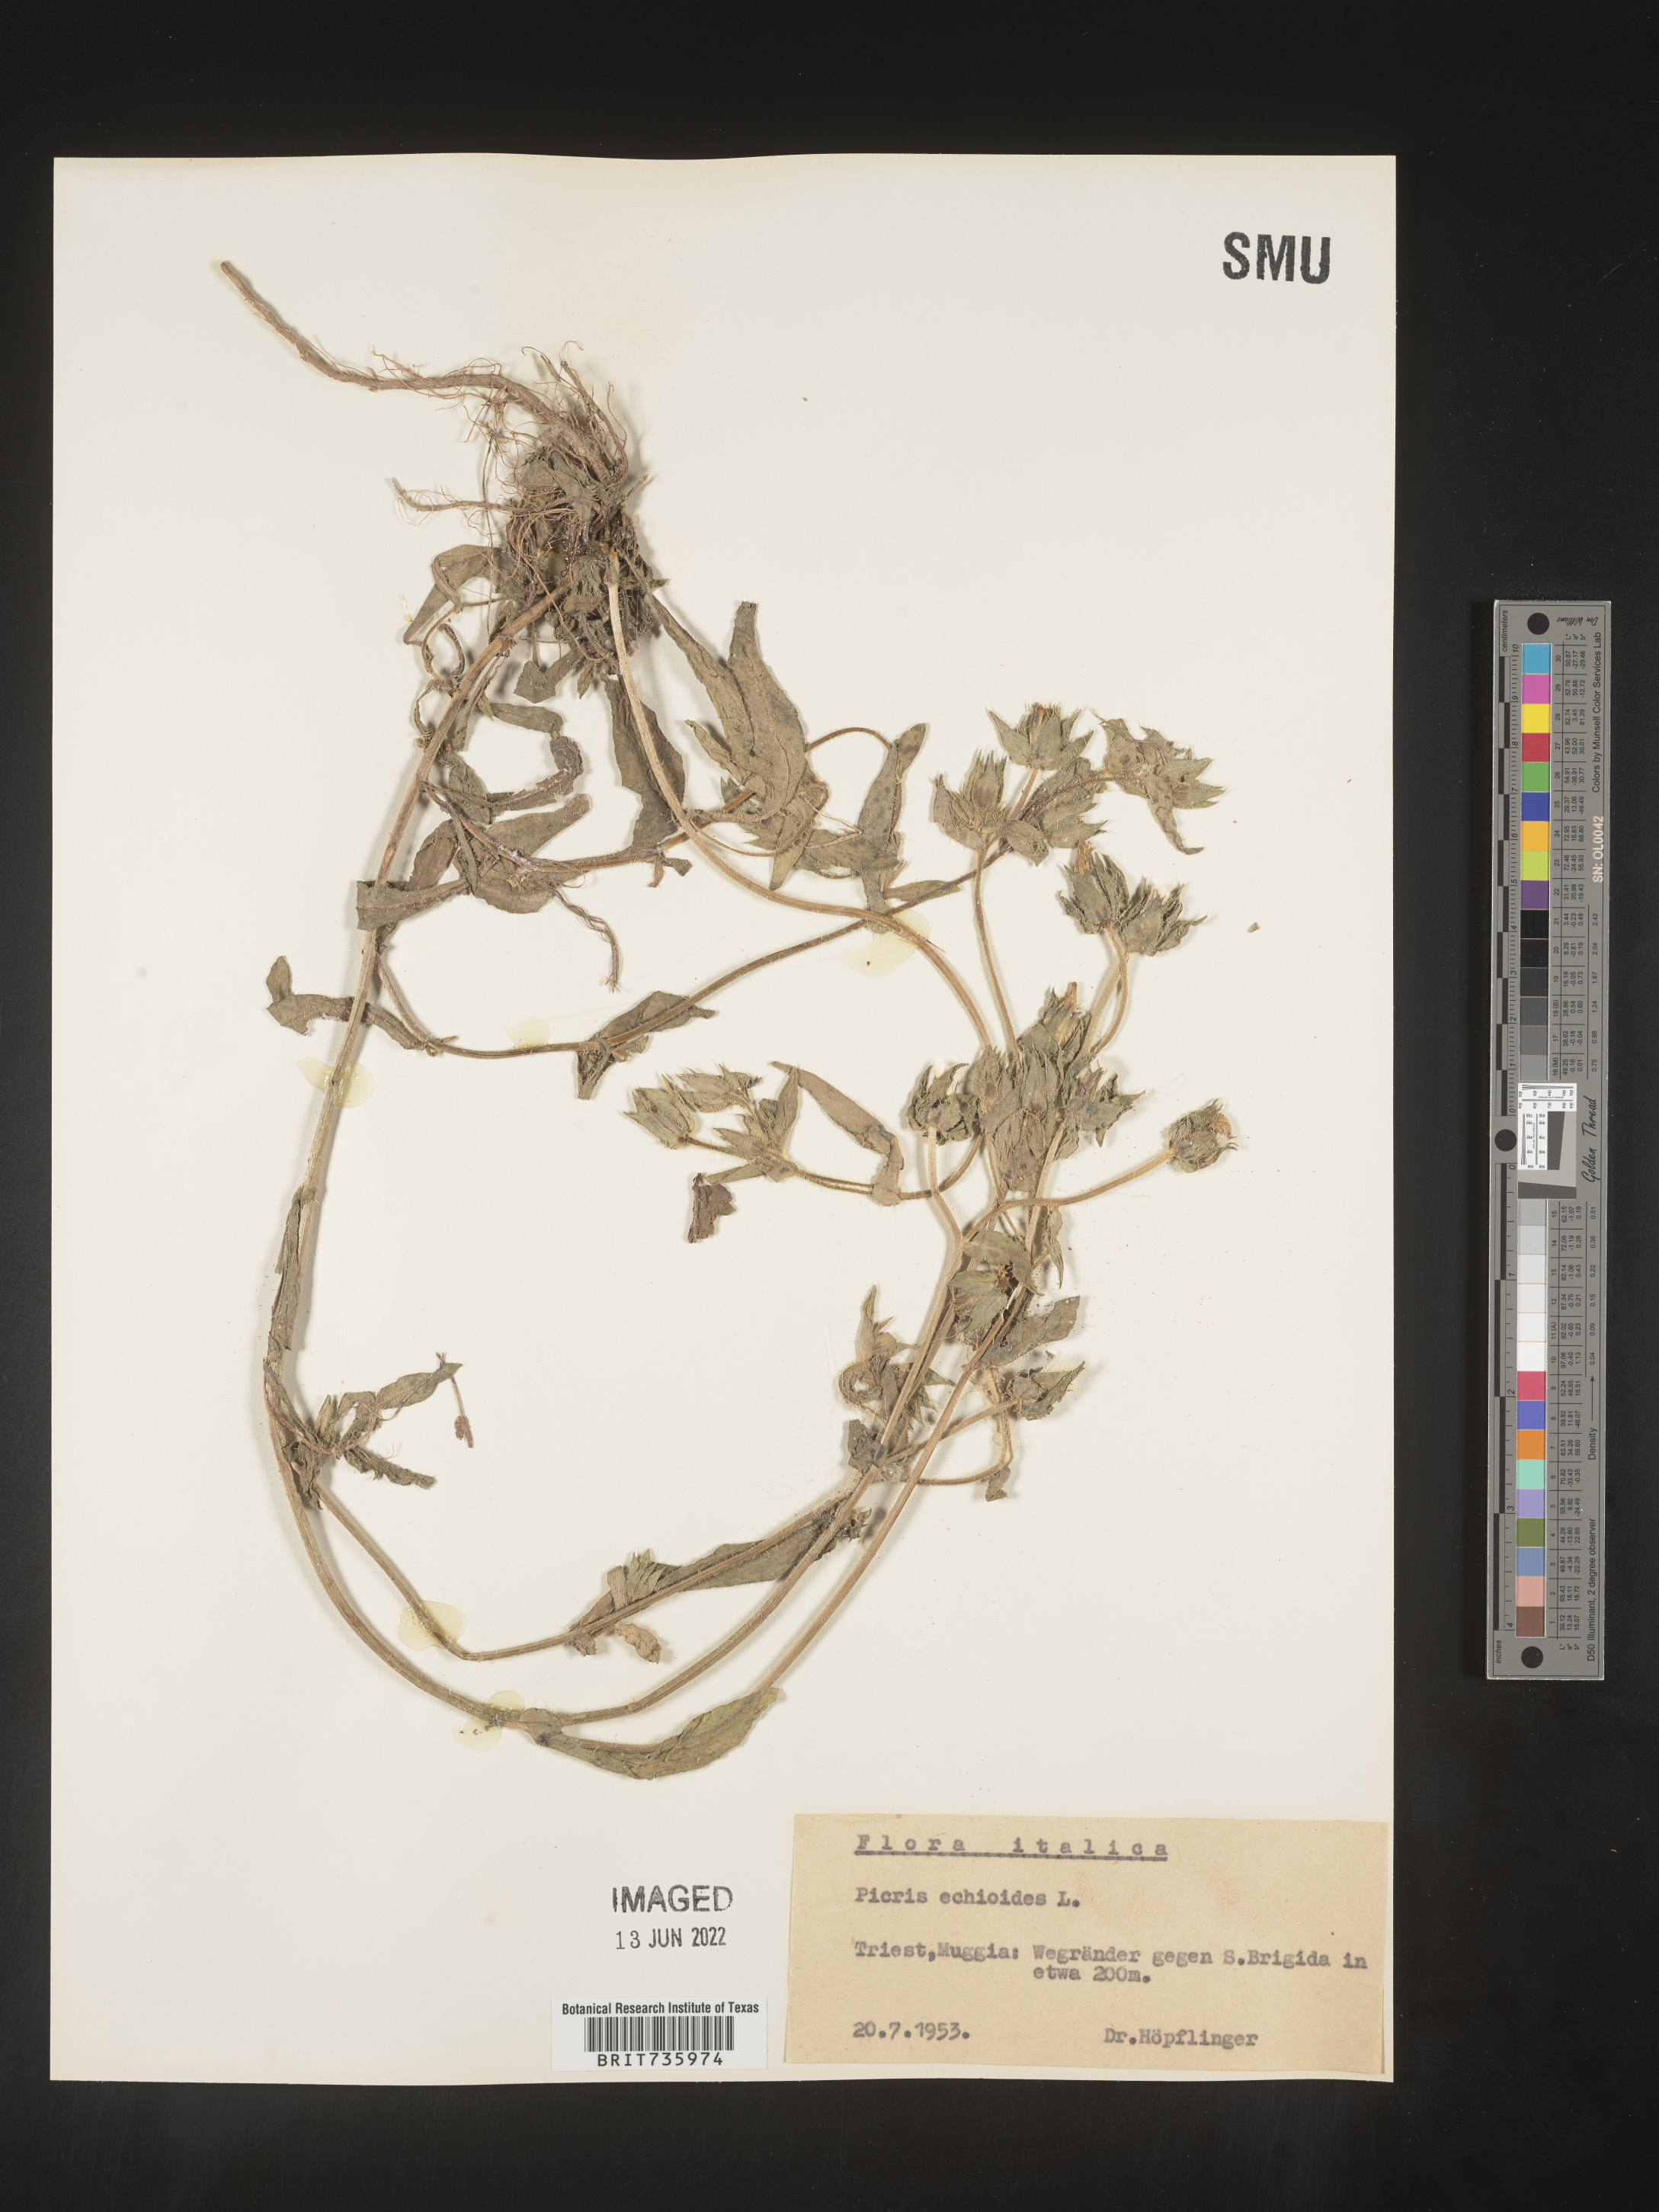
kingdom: Plantae
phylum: Tracheophyta
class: Magnoliopsida
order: Asterales
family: Asteraceae
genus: Picris
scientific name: Picris
